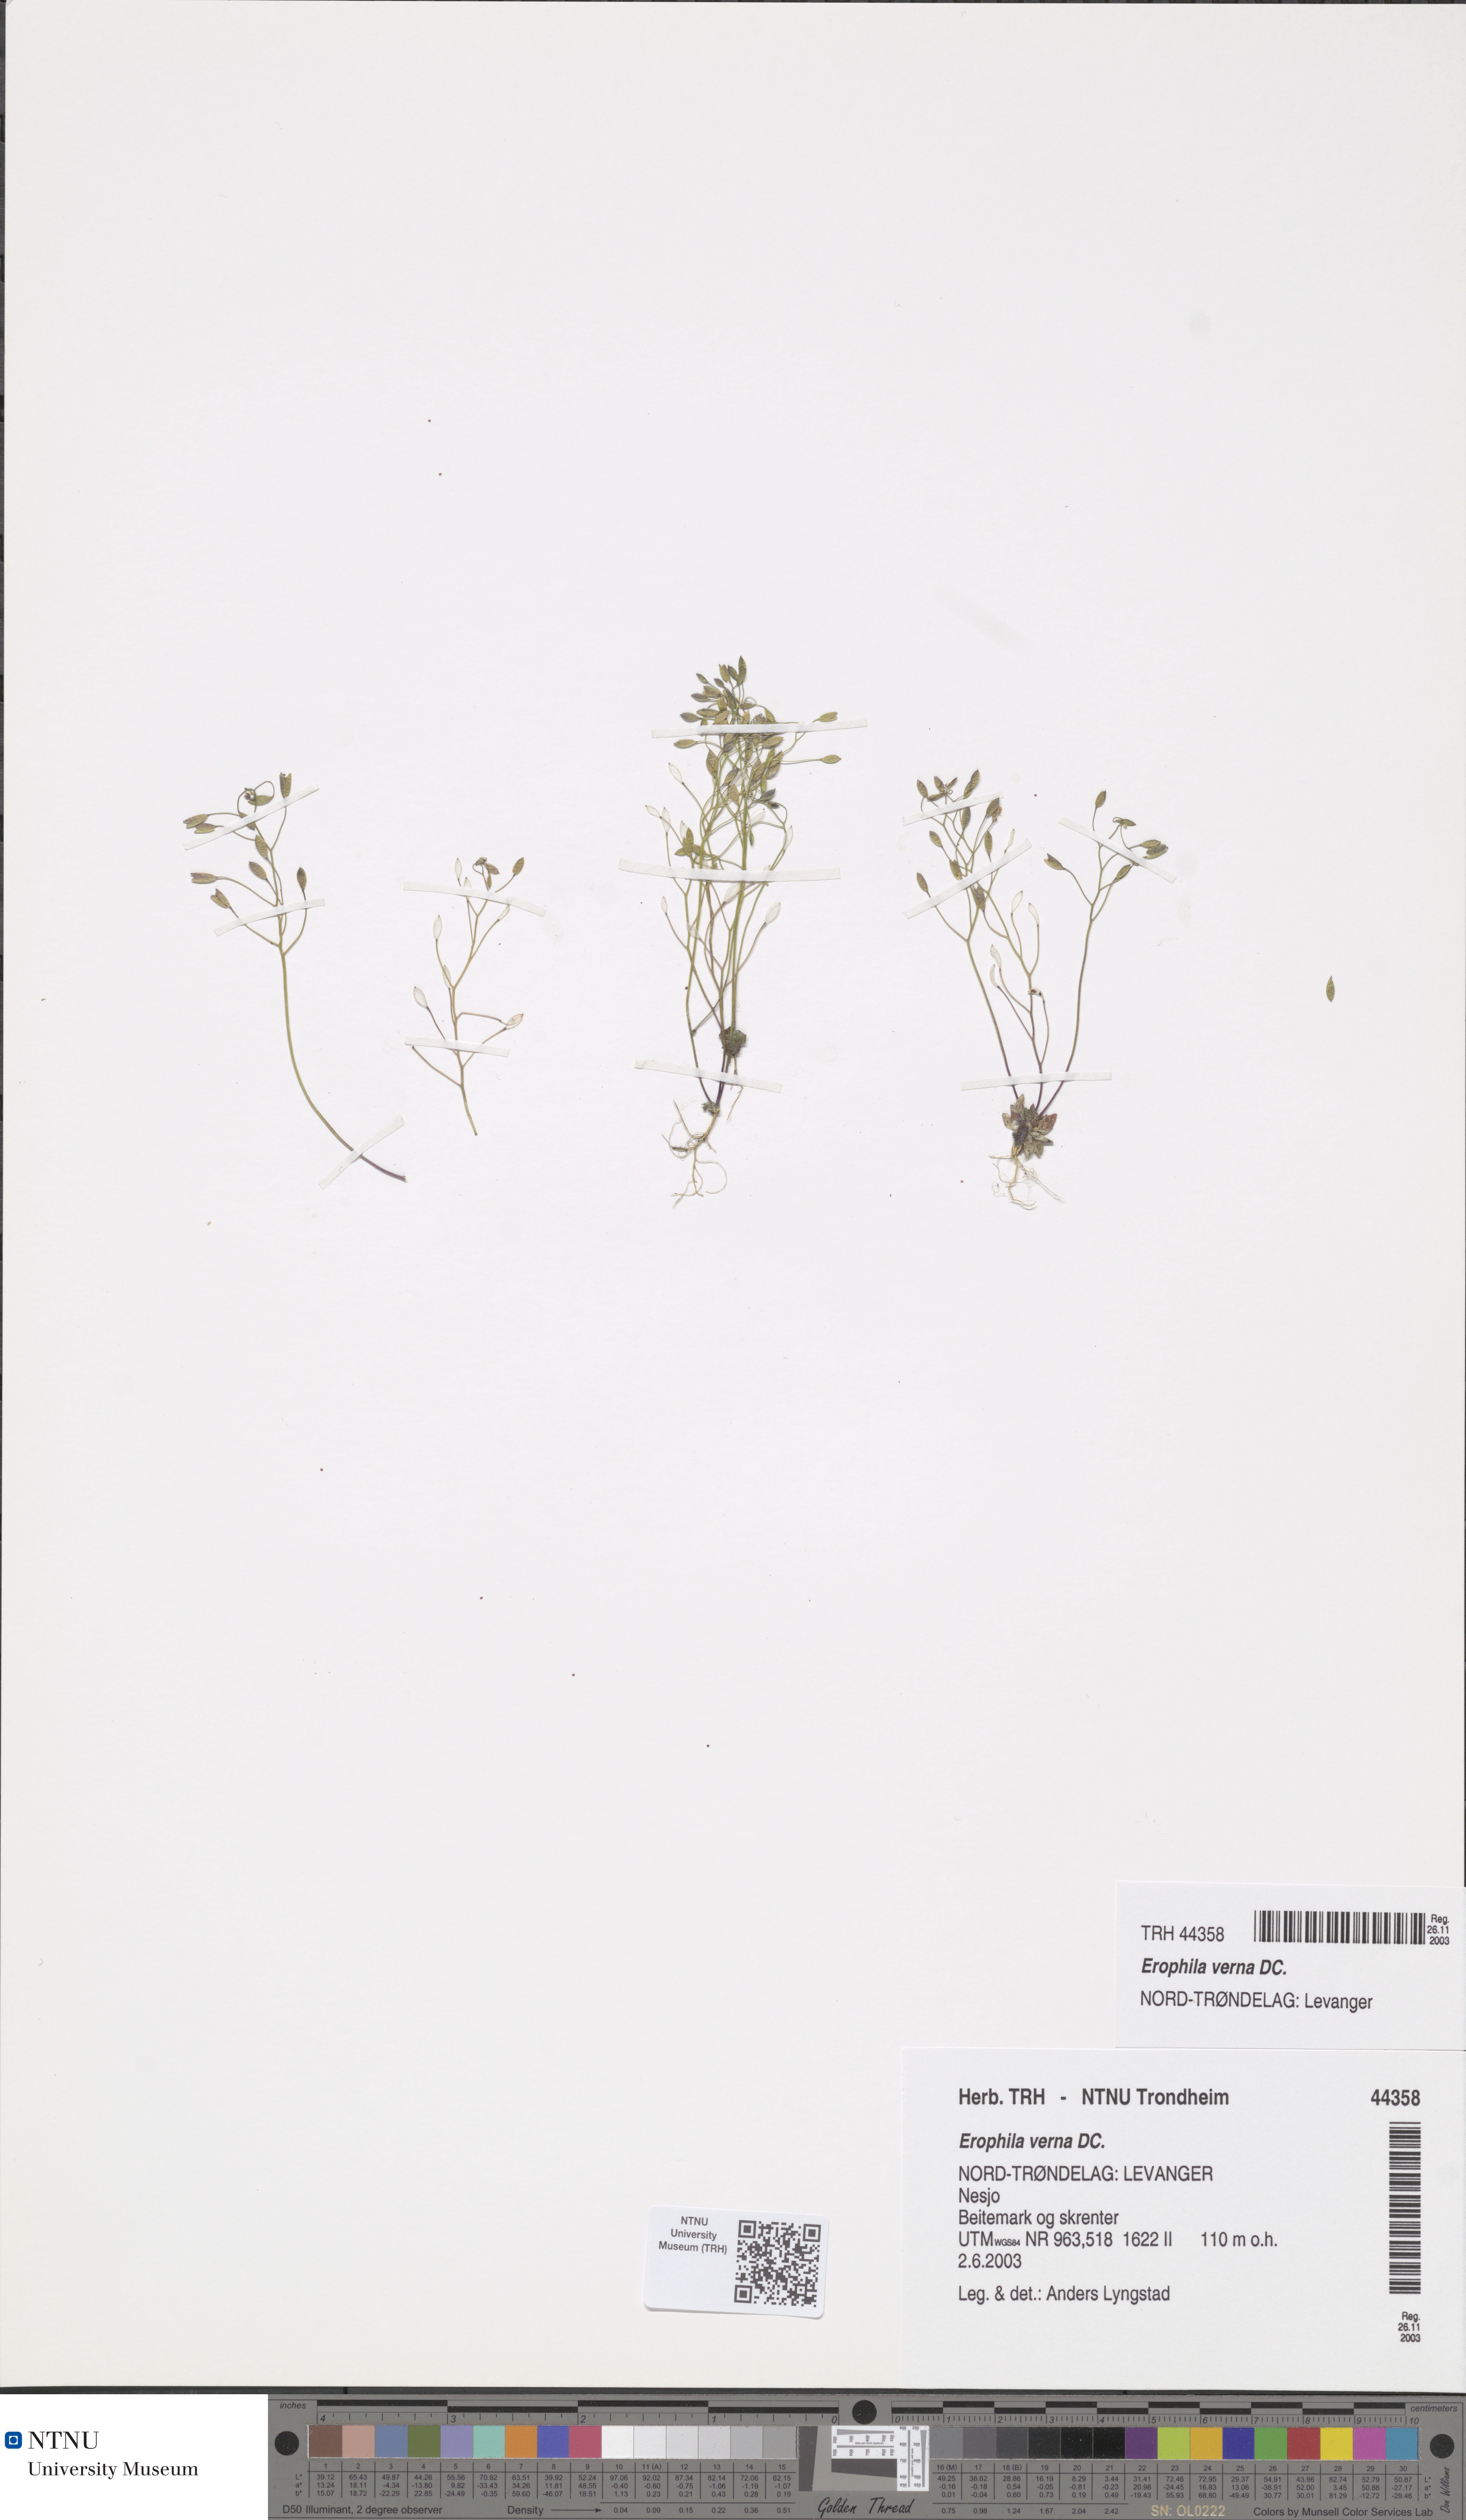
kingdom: Plantae
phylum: Tracheophyta
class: Magnoliopsida
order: Brassicales
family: Brassicaceae
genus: Draba
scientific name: Draba verna
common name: Spring draba
